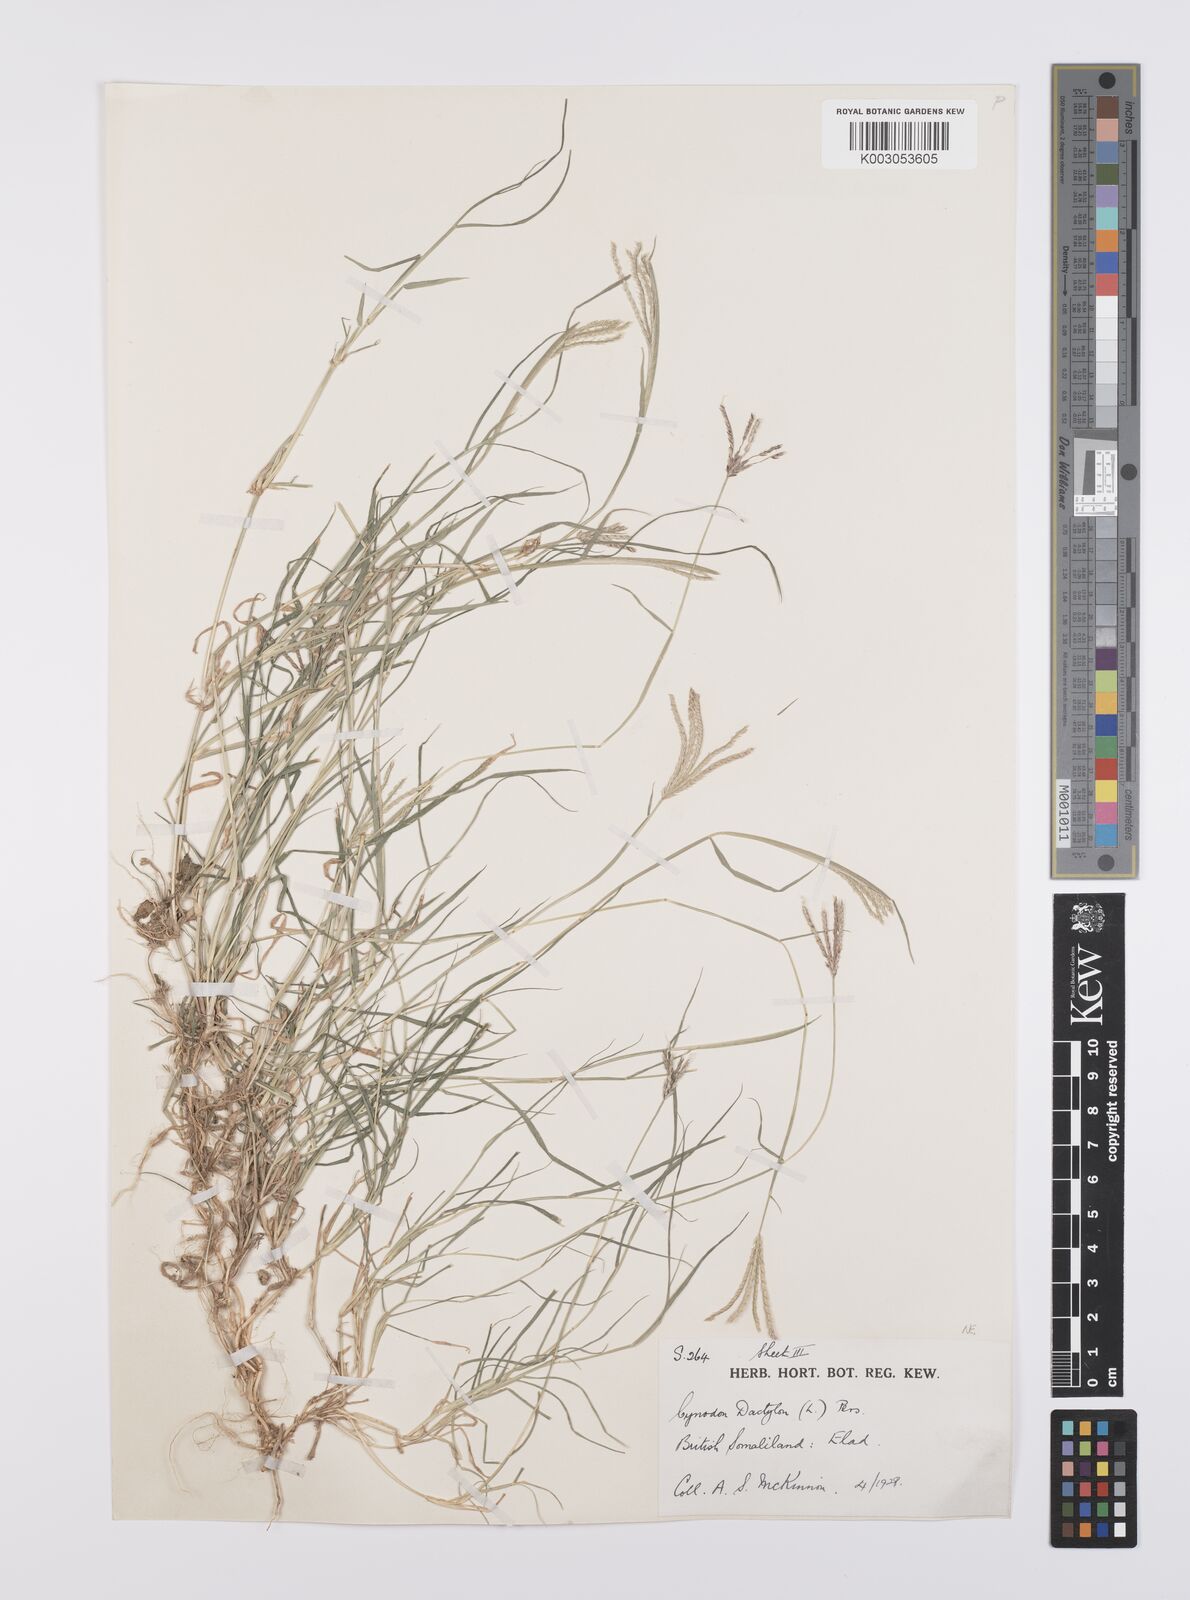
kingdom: Plantae
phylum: Tracheophyta
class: Liliopsida
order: Poales
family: Poaceae
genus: Cynodon
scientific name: Cynodon dactylon
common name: Bermuda grass
